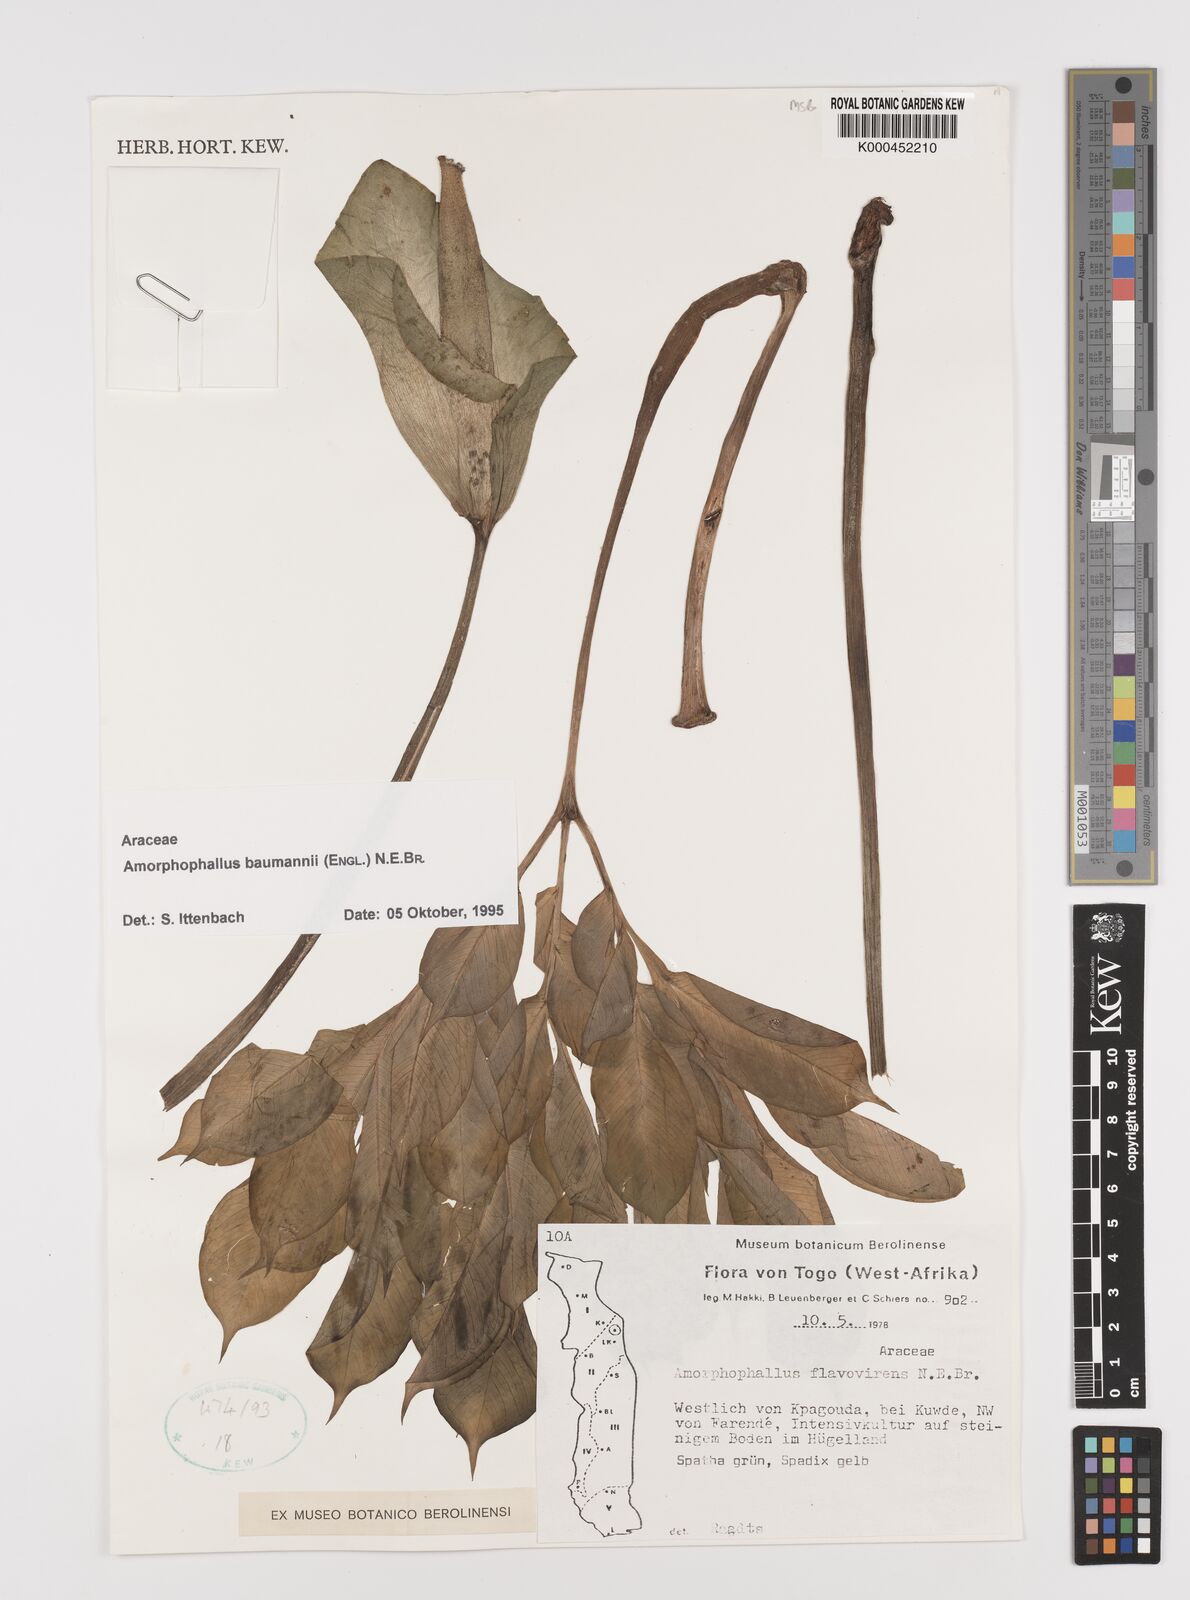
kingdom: Plantae
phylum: Tracheophyta
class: Liliopsida
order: Alismatales
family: Araceae
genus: Amorphophallus
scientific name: Amorphophallus baumannii
